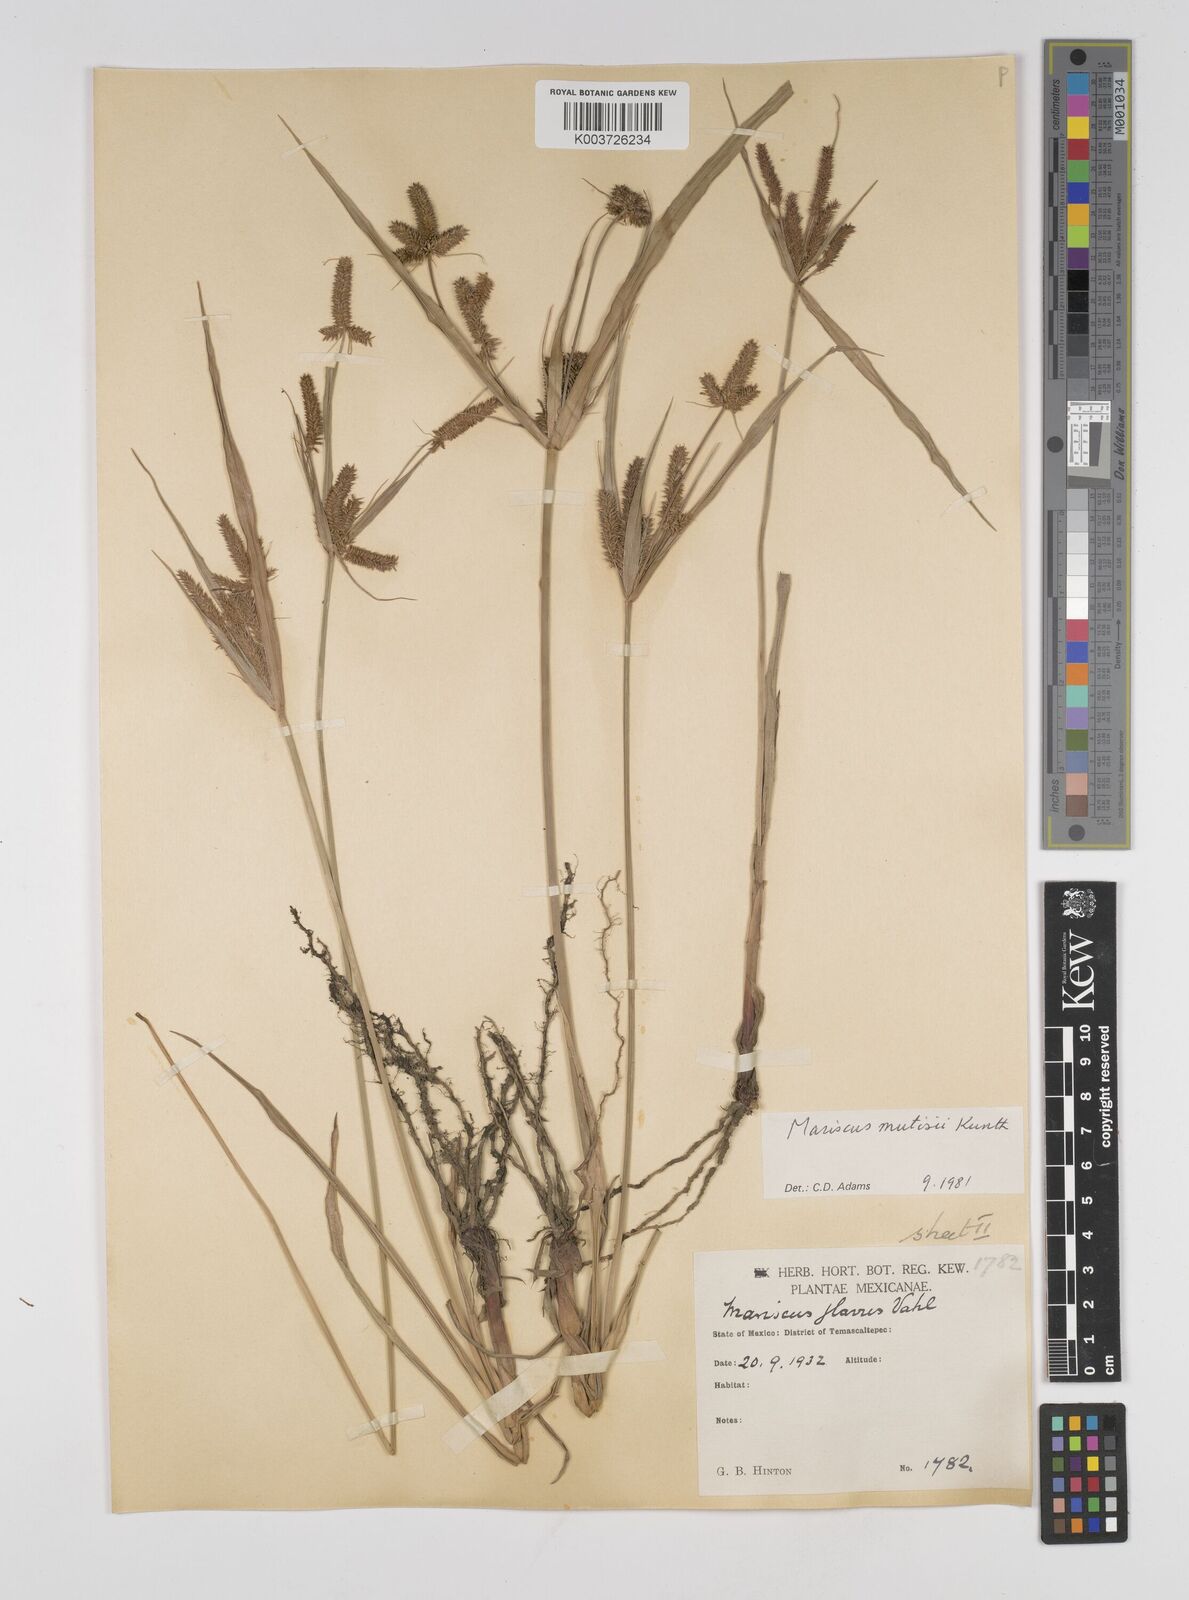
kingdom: Plantae
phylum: Tracheophyta
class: Liliopsida
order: Poales
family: Cyperaceae
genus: Cyperus
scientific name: Cyperus mutisii
